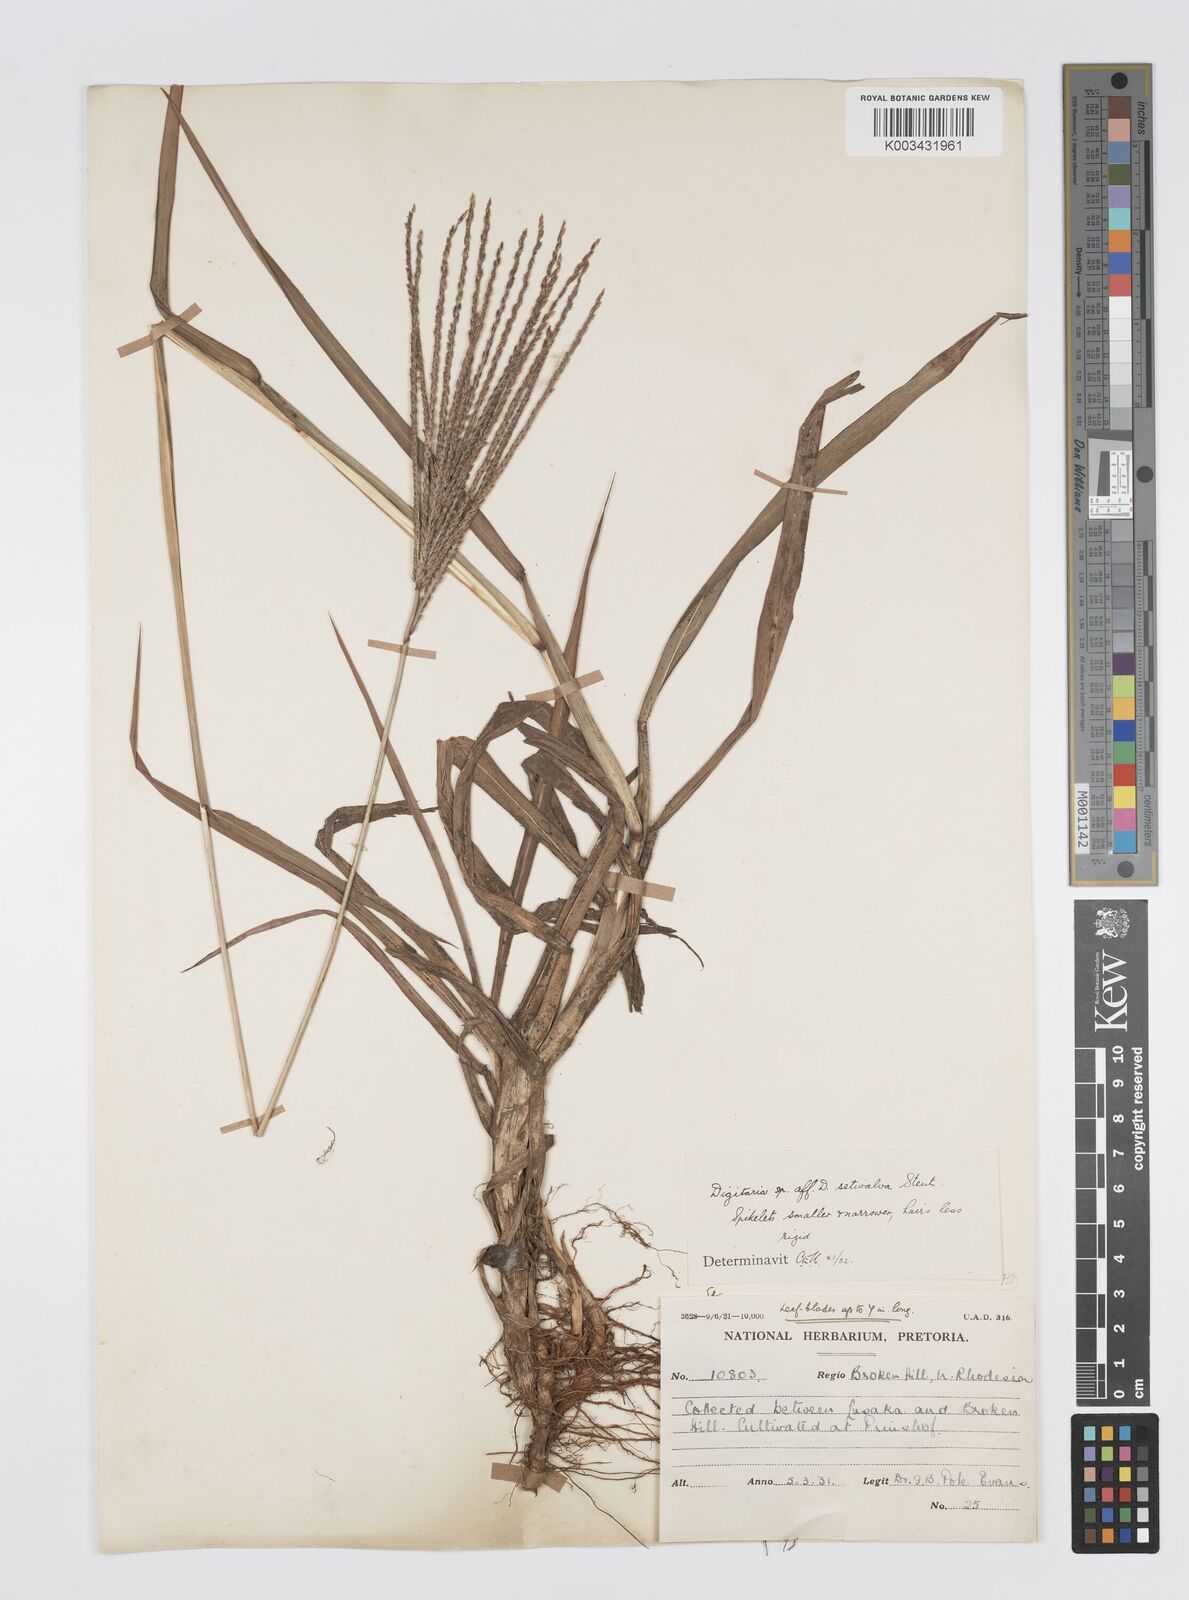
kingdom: Plantae
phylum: Tracheophyta
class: Liliopsida
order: Poales
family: Poaceae
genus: Digitaria
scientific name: Digitaria milanjiana
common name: Madagascar crabgrass
